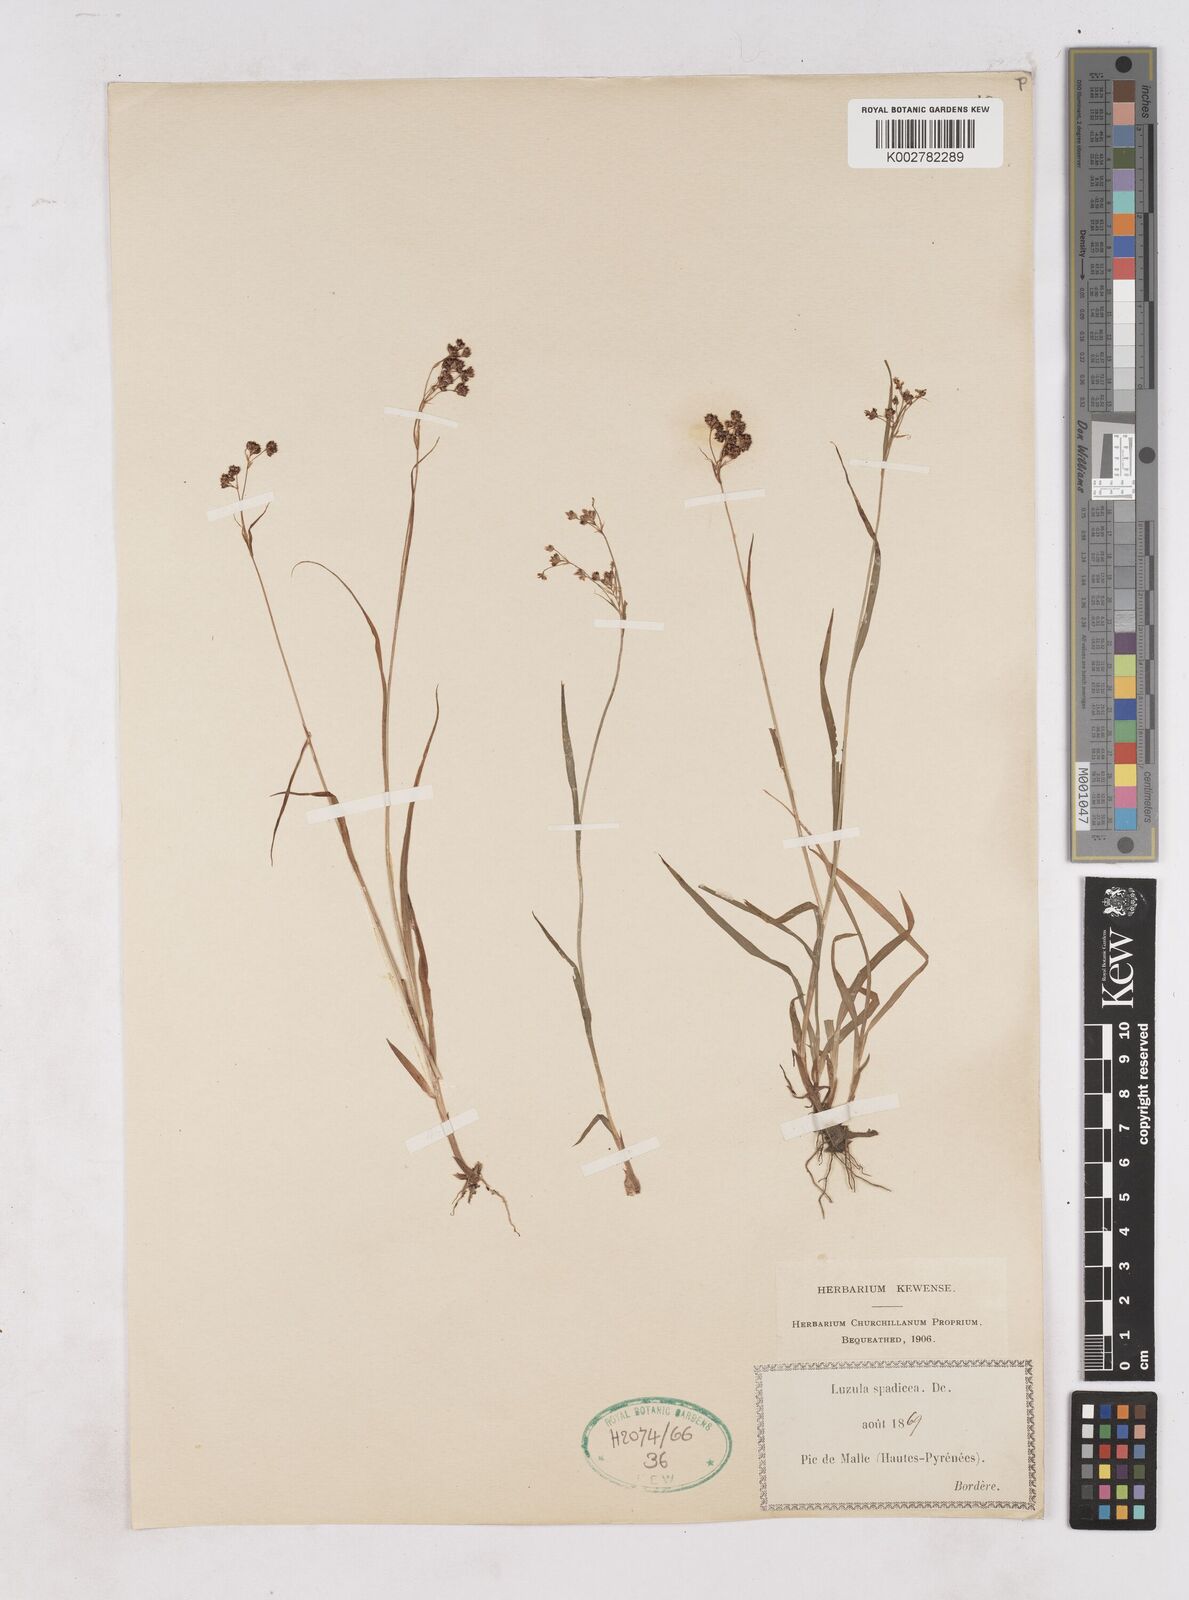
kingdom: Plantae
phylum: Tracheophyta
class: Liliopsida
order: Poales
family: Juncaceae
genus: Luzula
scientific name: Luzula alpinopilosa
